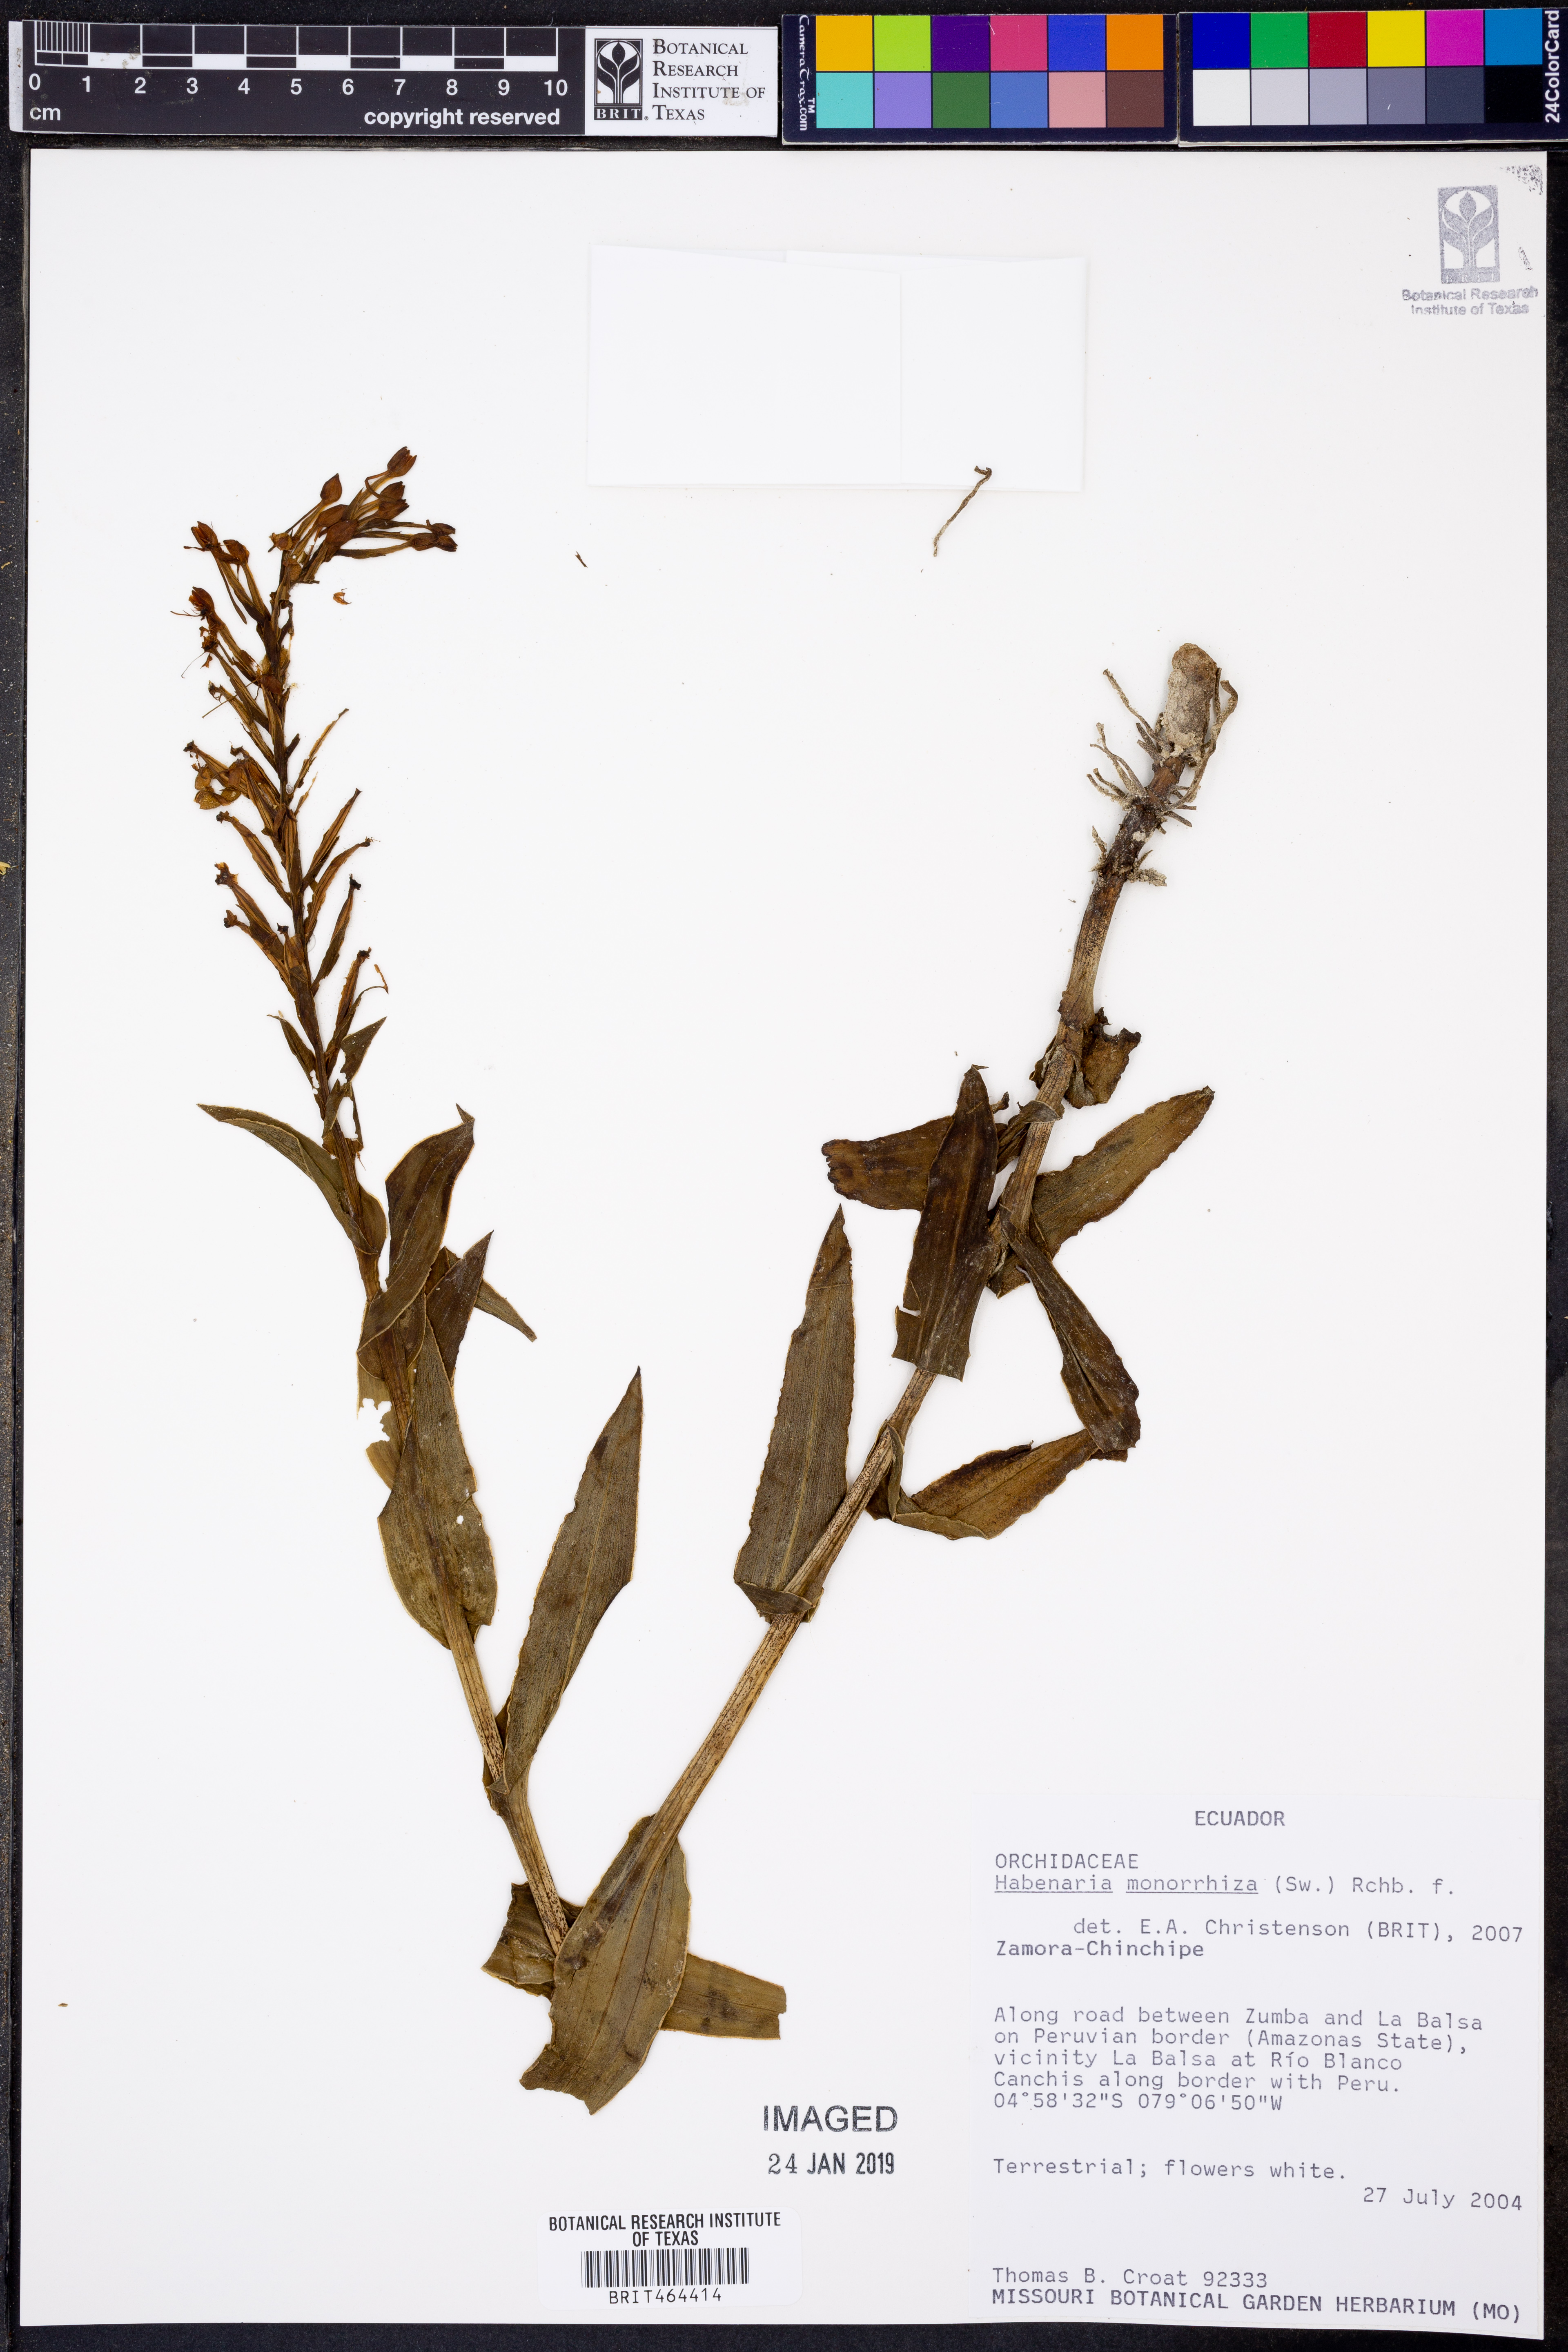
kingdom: Plantae
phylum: Tracheophyta
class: Liliopsida
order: Asparagales
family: Orchidaceae
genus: Habenaria
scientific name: Habenaria monorrhiza
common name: Tropical bog orchid
